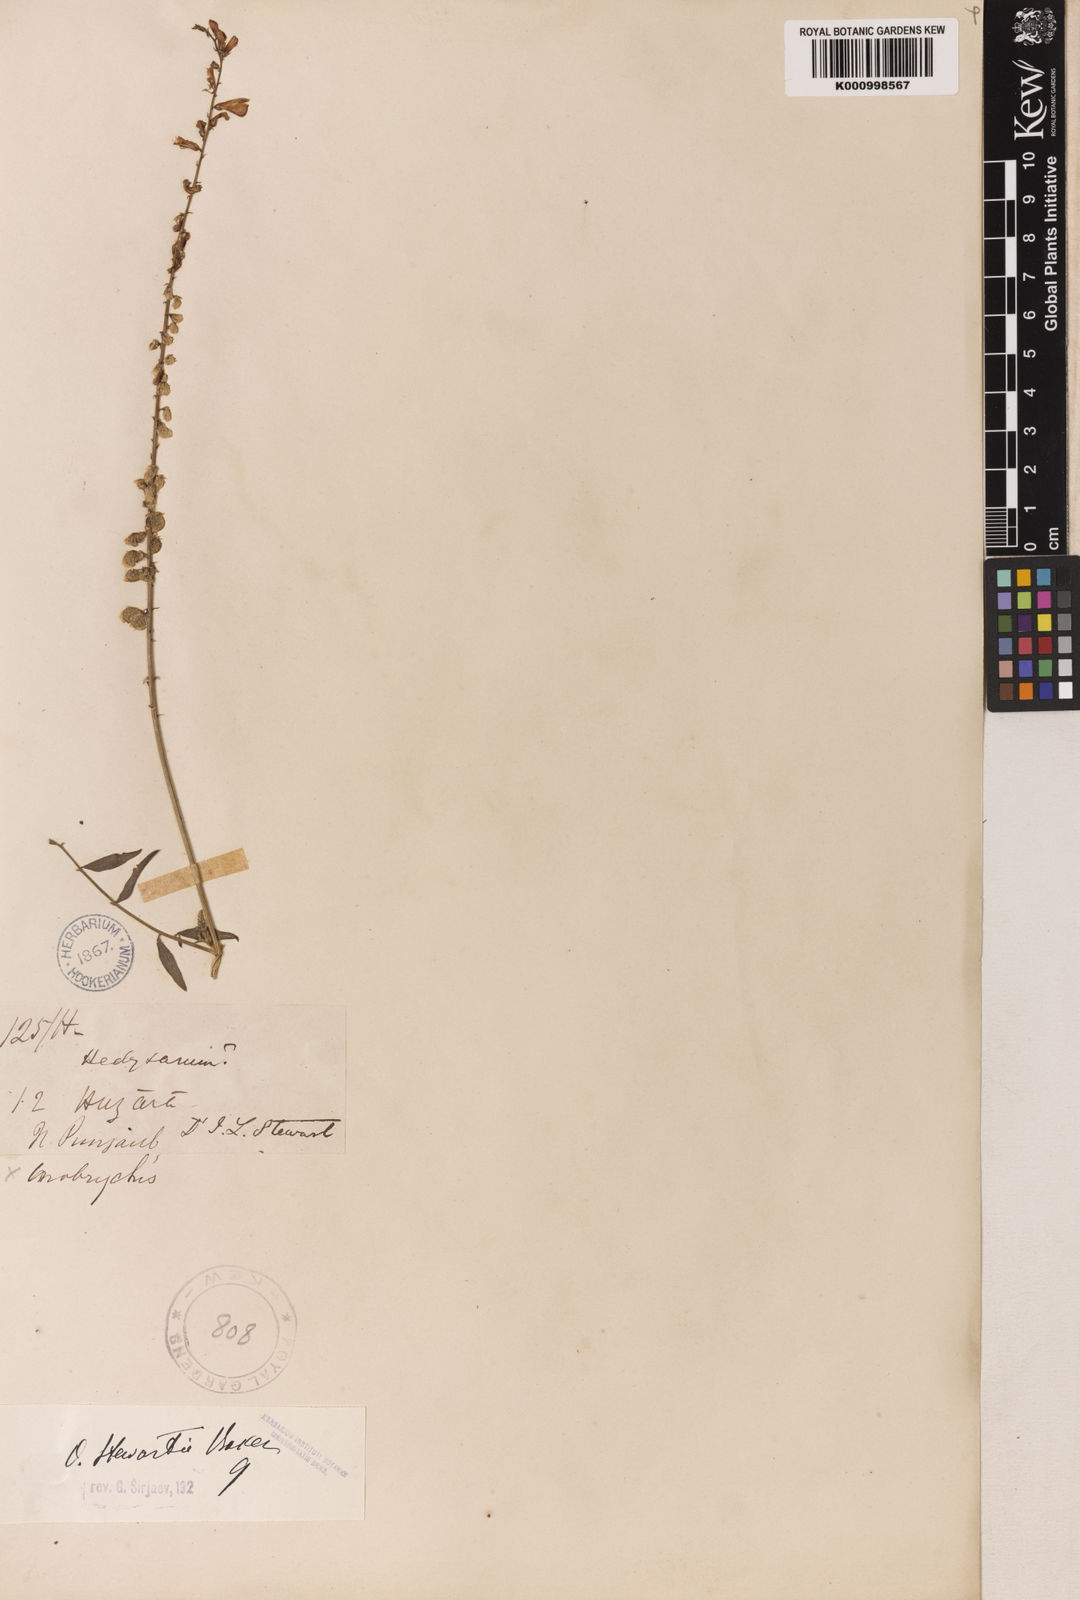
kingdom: Plantae
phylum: Tracheophyta
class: Magnoliopsida
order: Fabales
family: Fabaceae
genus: Onobrychis
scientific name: Onobrychis stewartii
